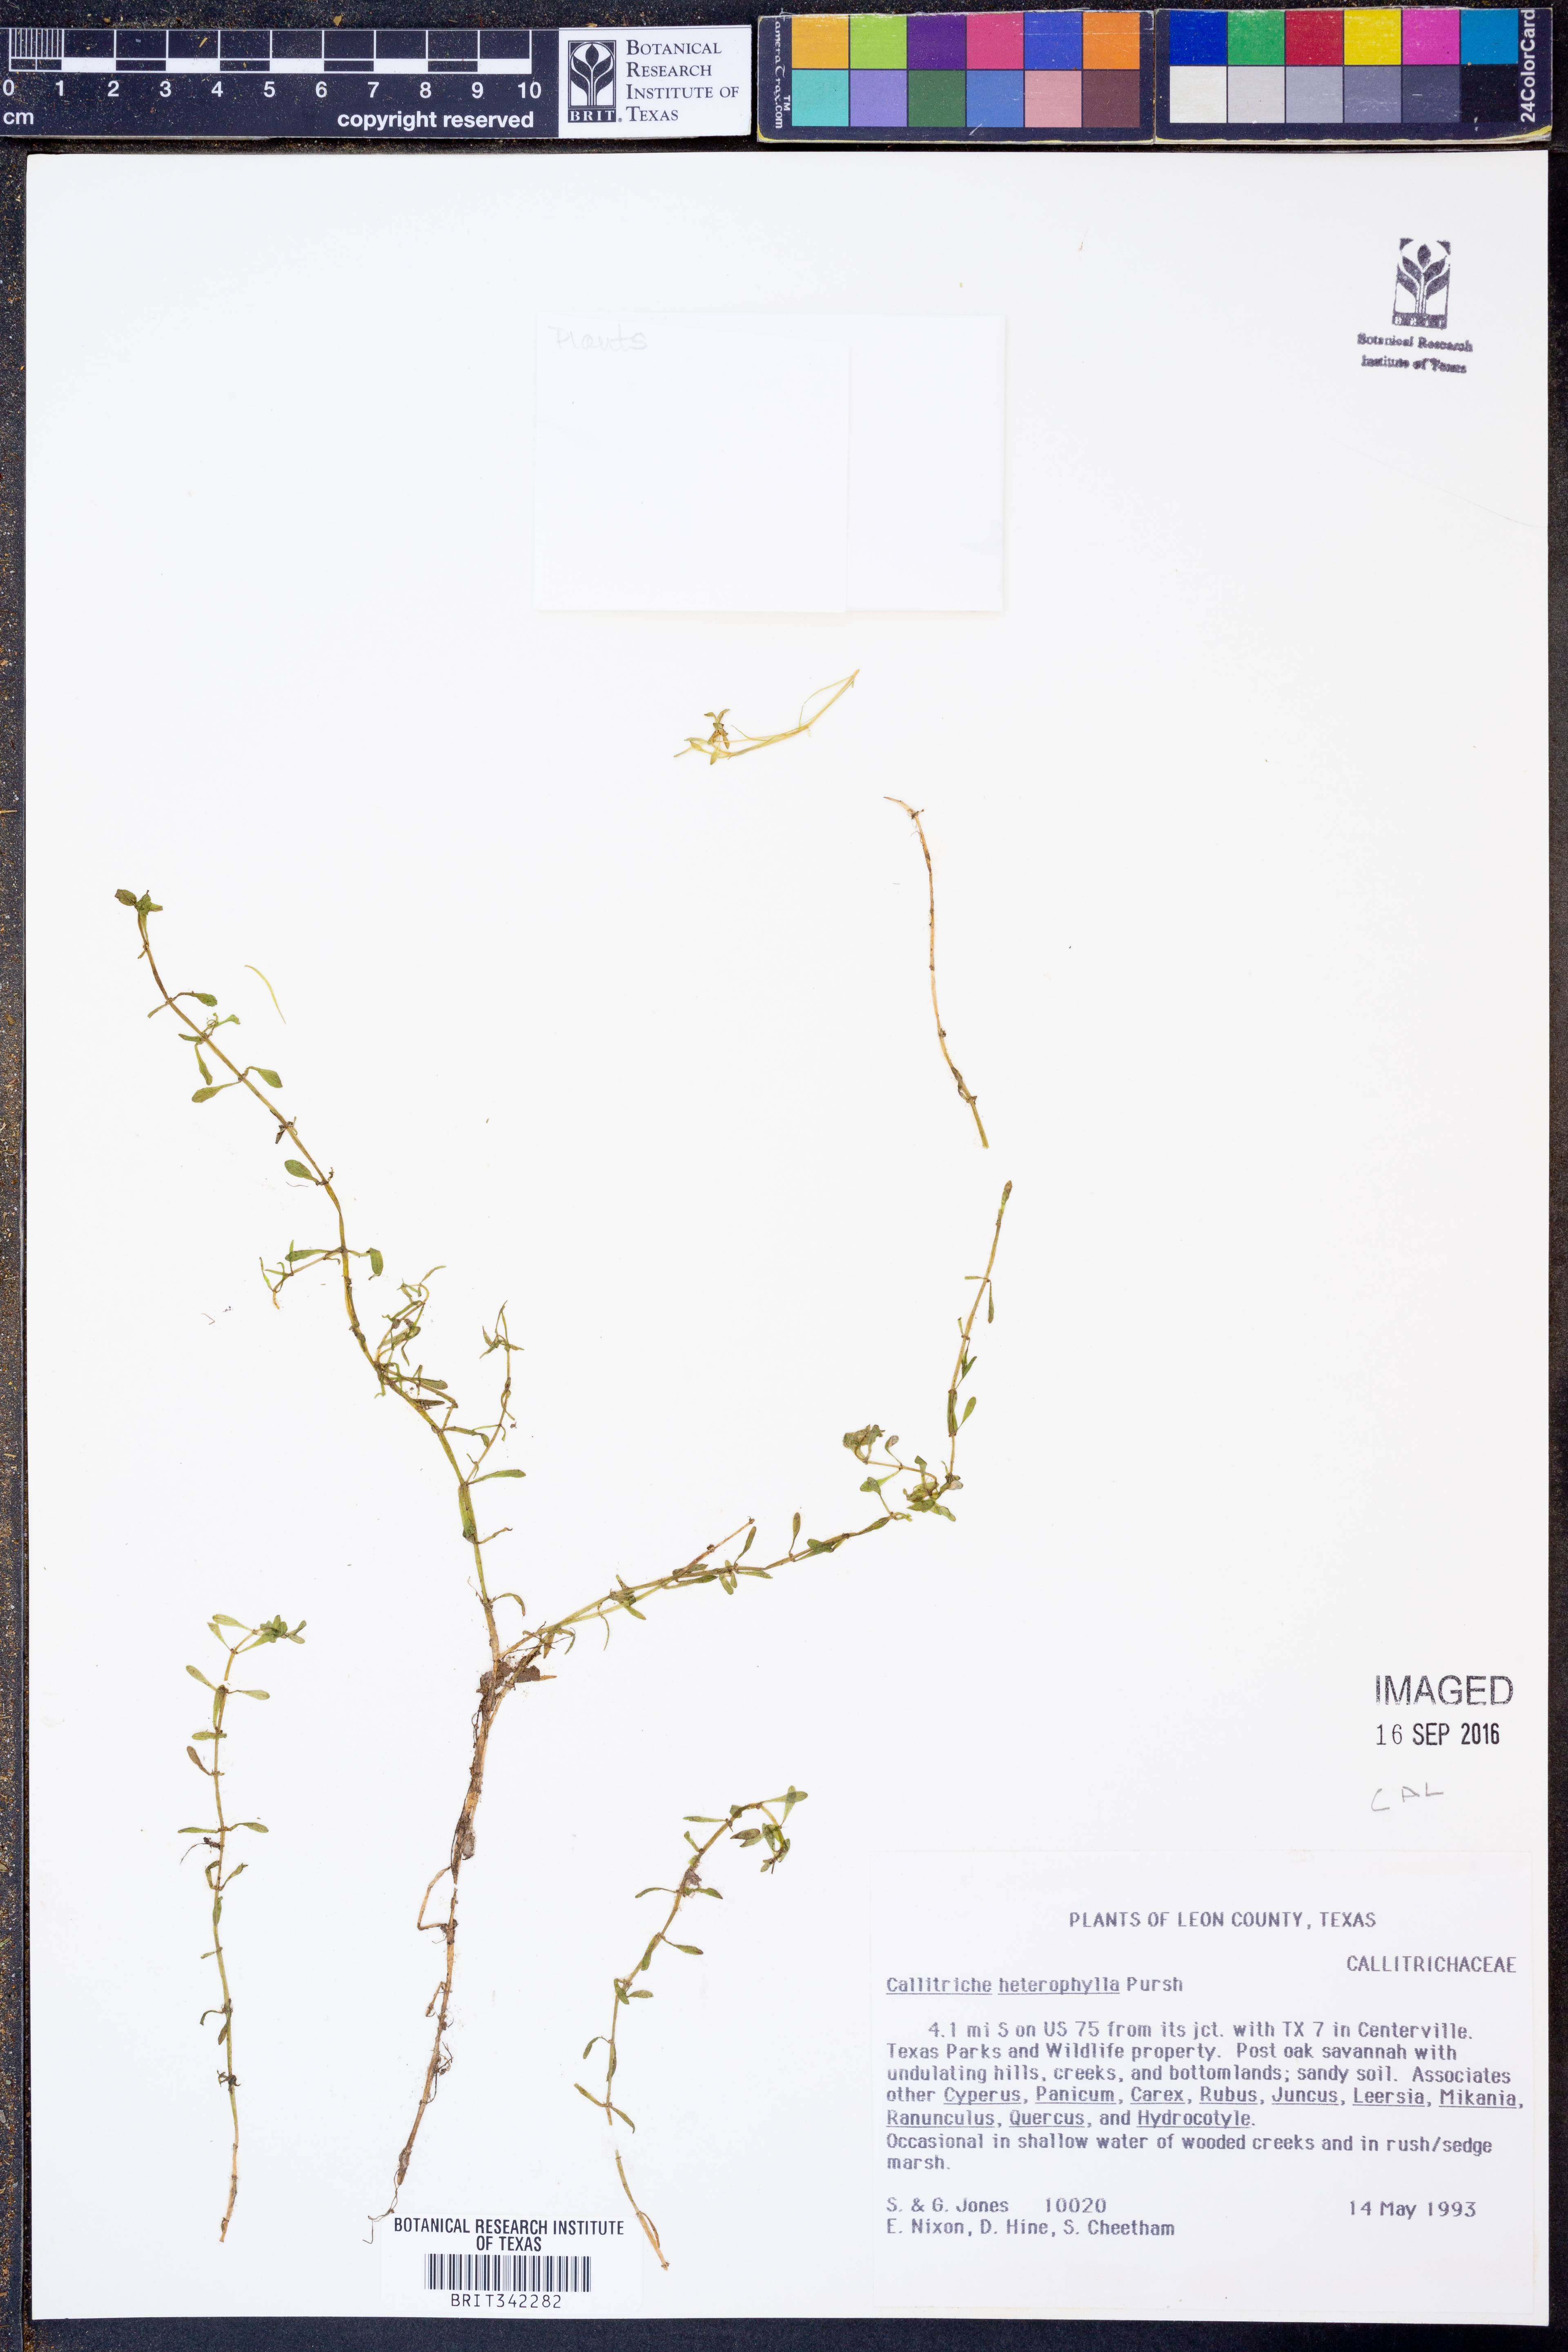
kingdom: Plantae
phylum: Tracheophyta
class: Magnoliopsida
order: Lamiales
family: Plantaginaceae
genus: Callitriche
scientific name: Callitriche heterophylla
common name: Two-headed water-starwort
